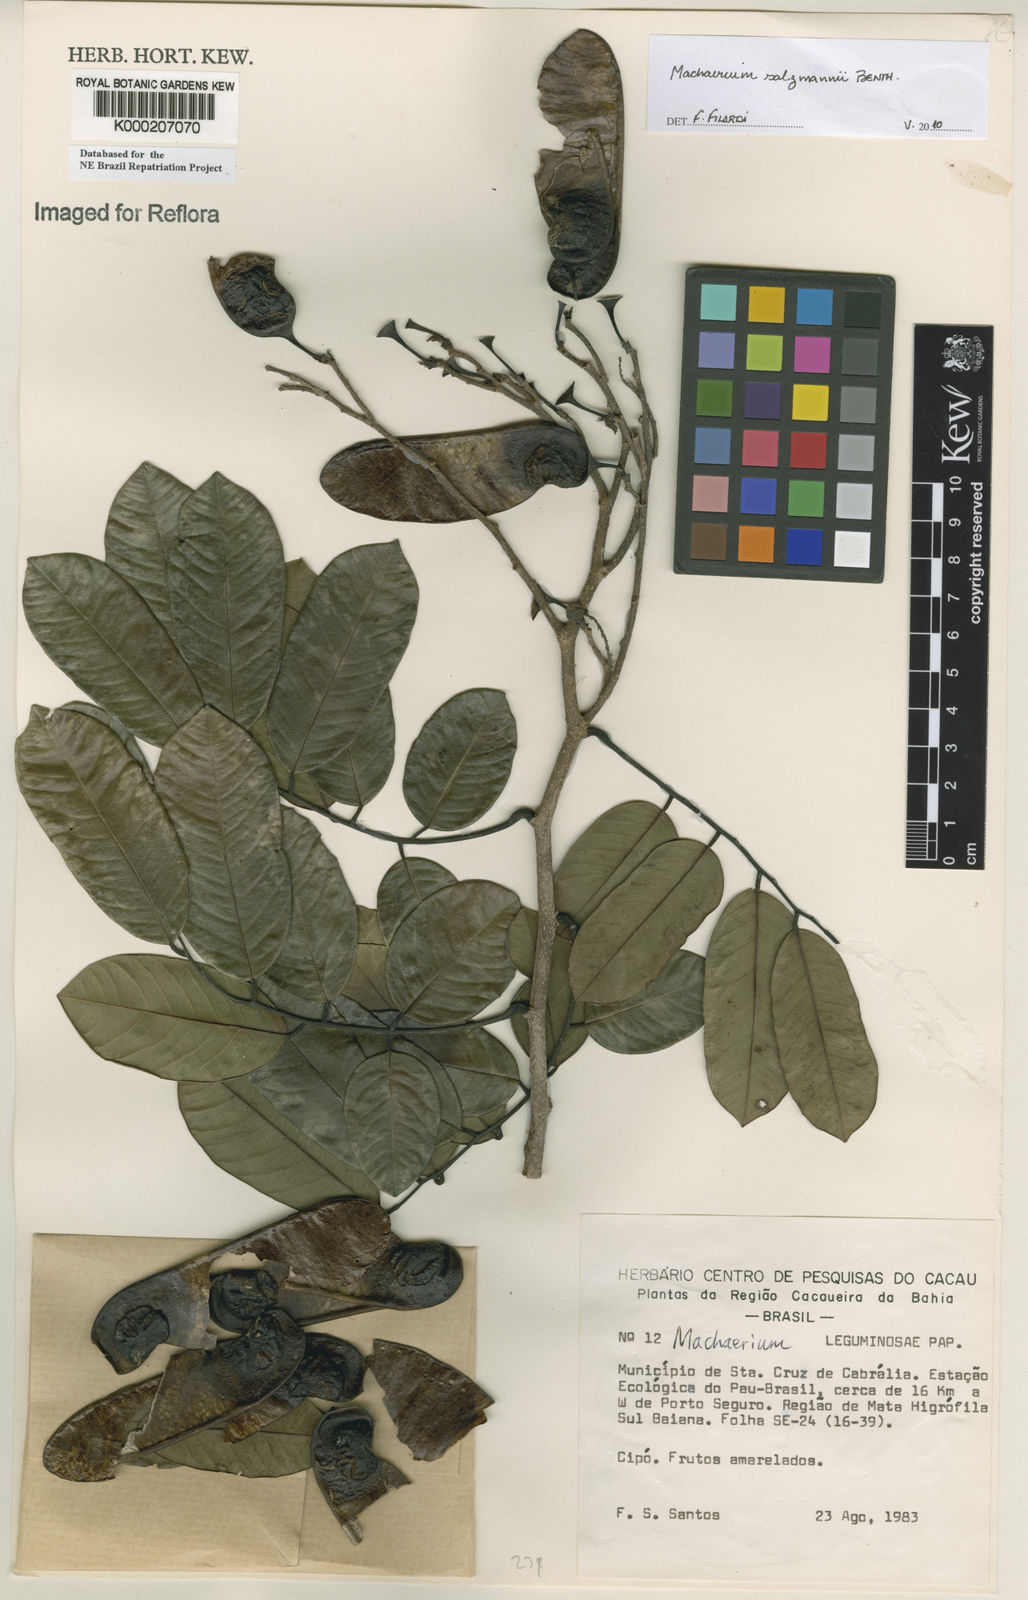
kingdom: Plantae
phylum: Tracheophyta
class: Magnoliopsida
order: Fabales
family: Fabaceae
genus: Machaerium
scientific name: Machaerium
